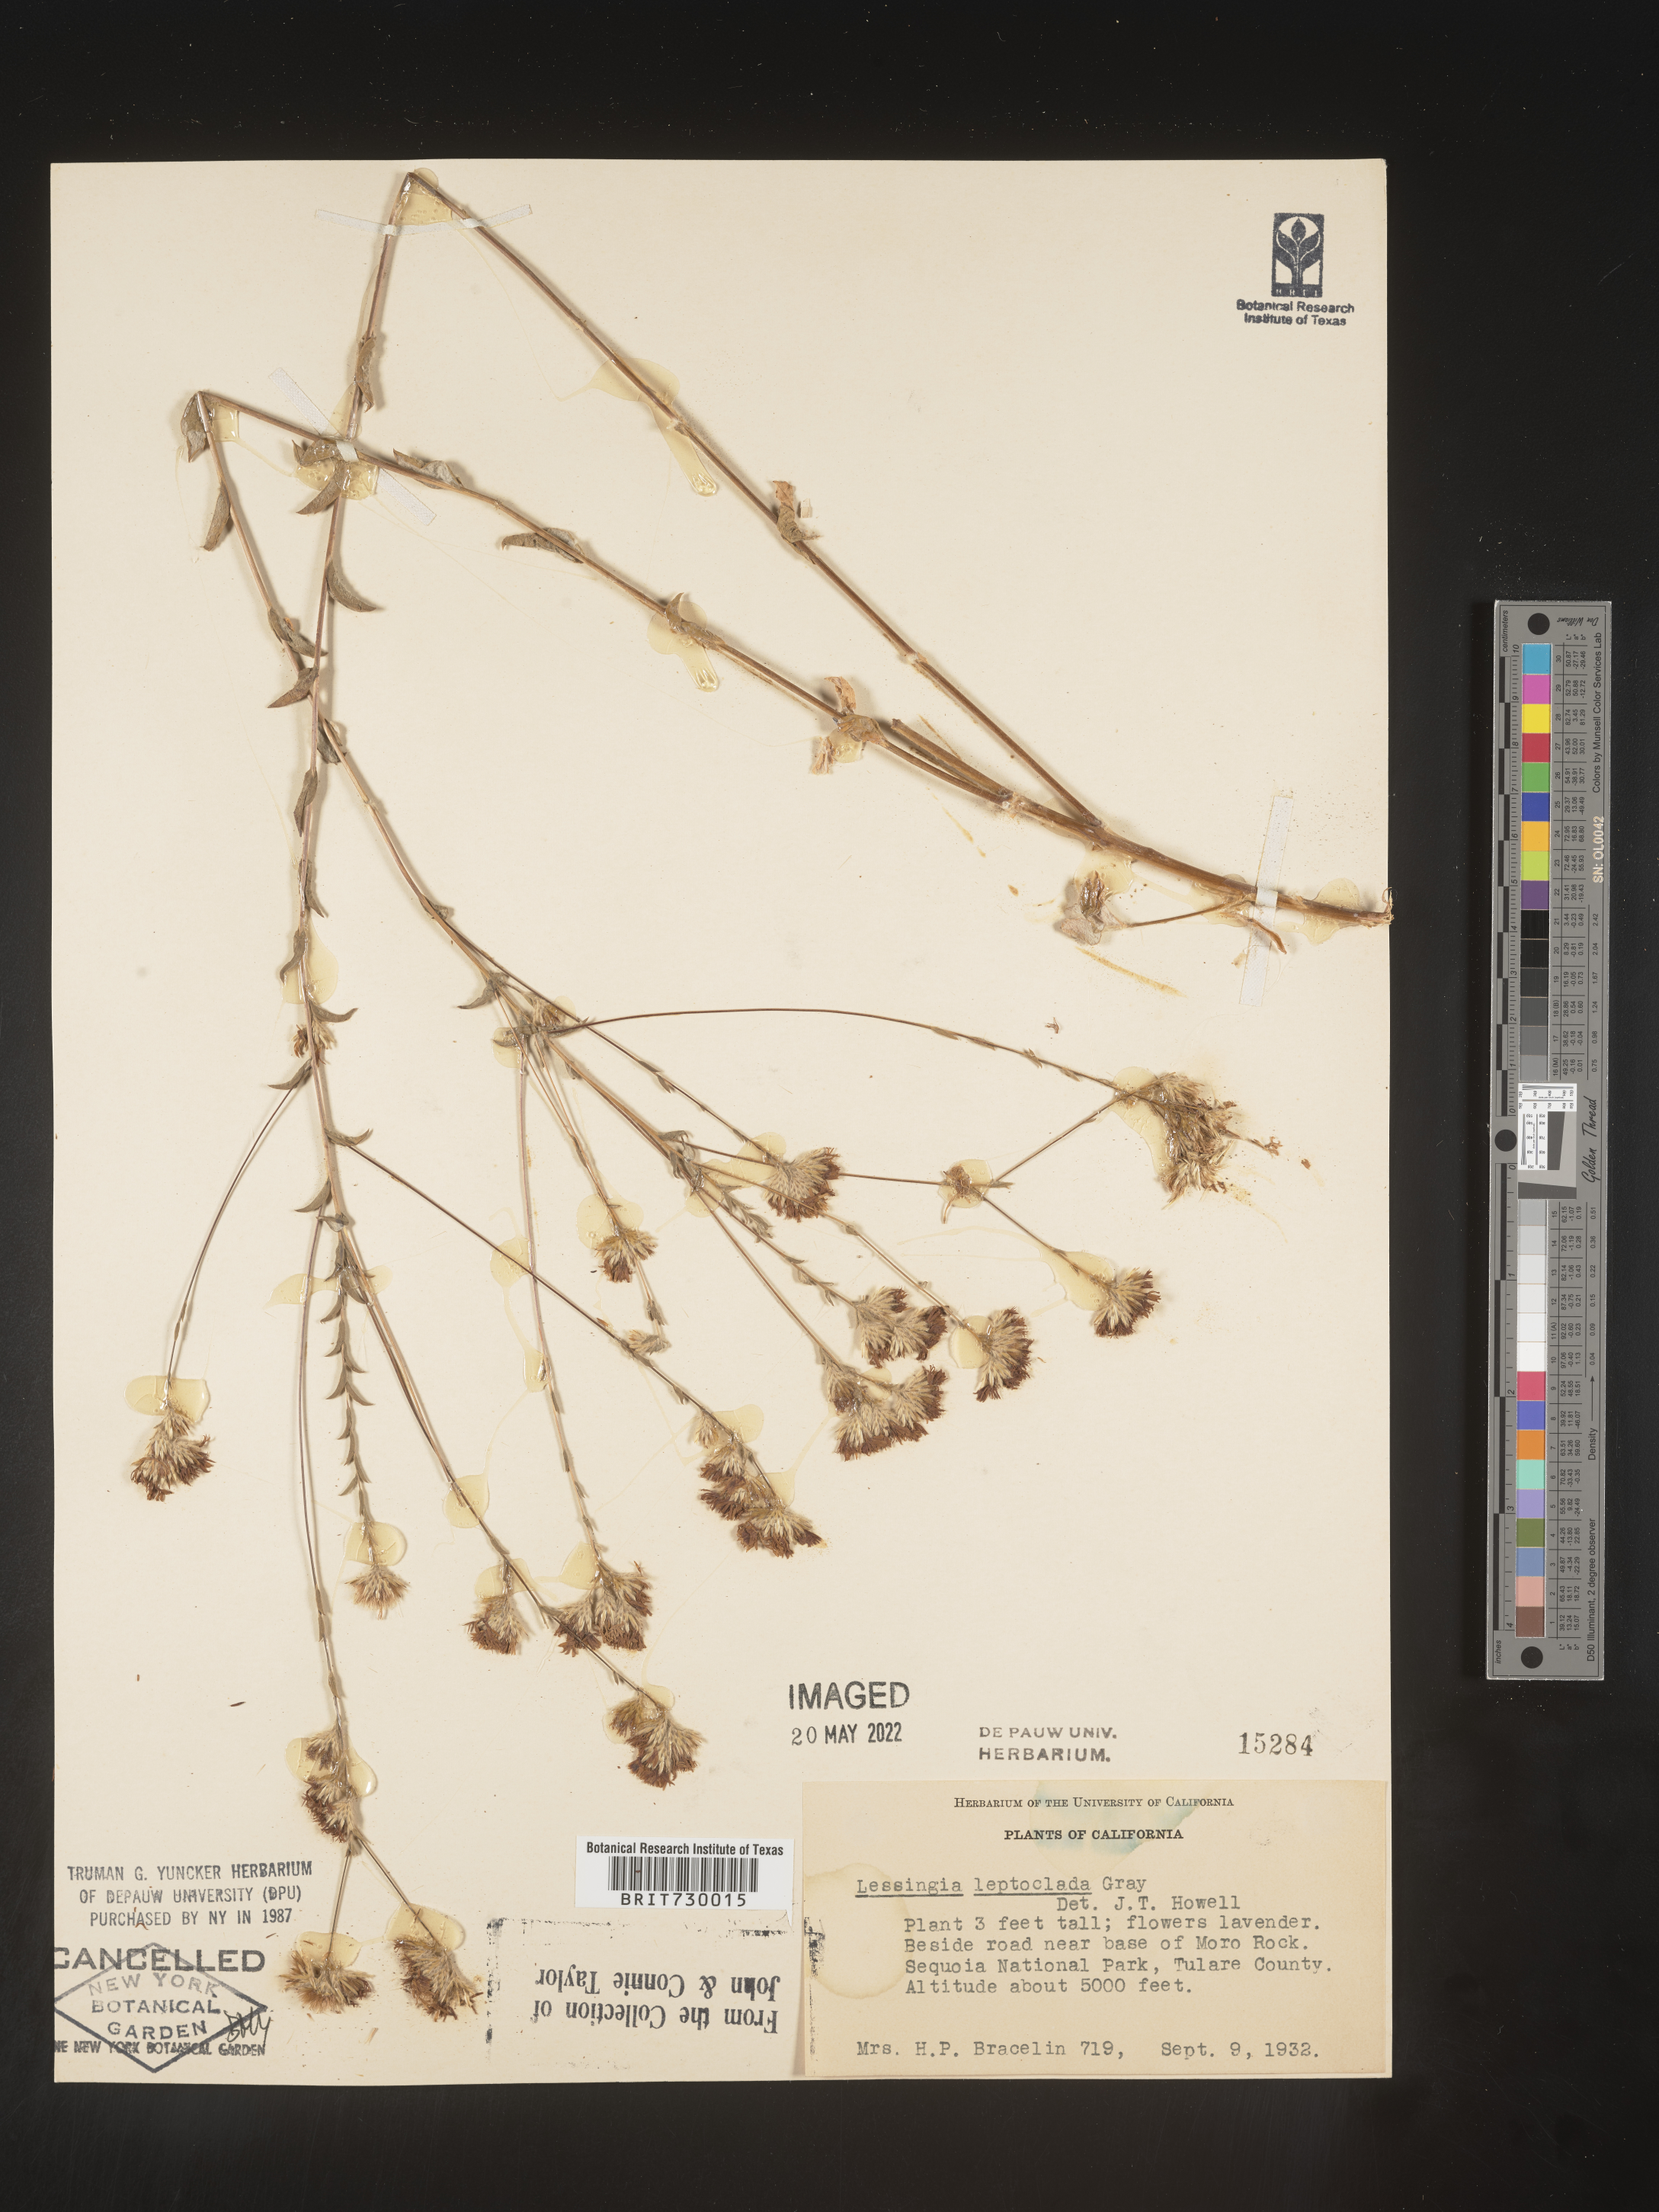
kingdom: Plantae
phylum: Tracheophyta
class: Magnoliopsida
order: Asterales
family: Asteraceae
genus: Lessingia
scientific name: Lessingia
